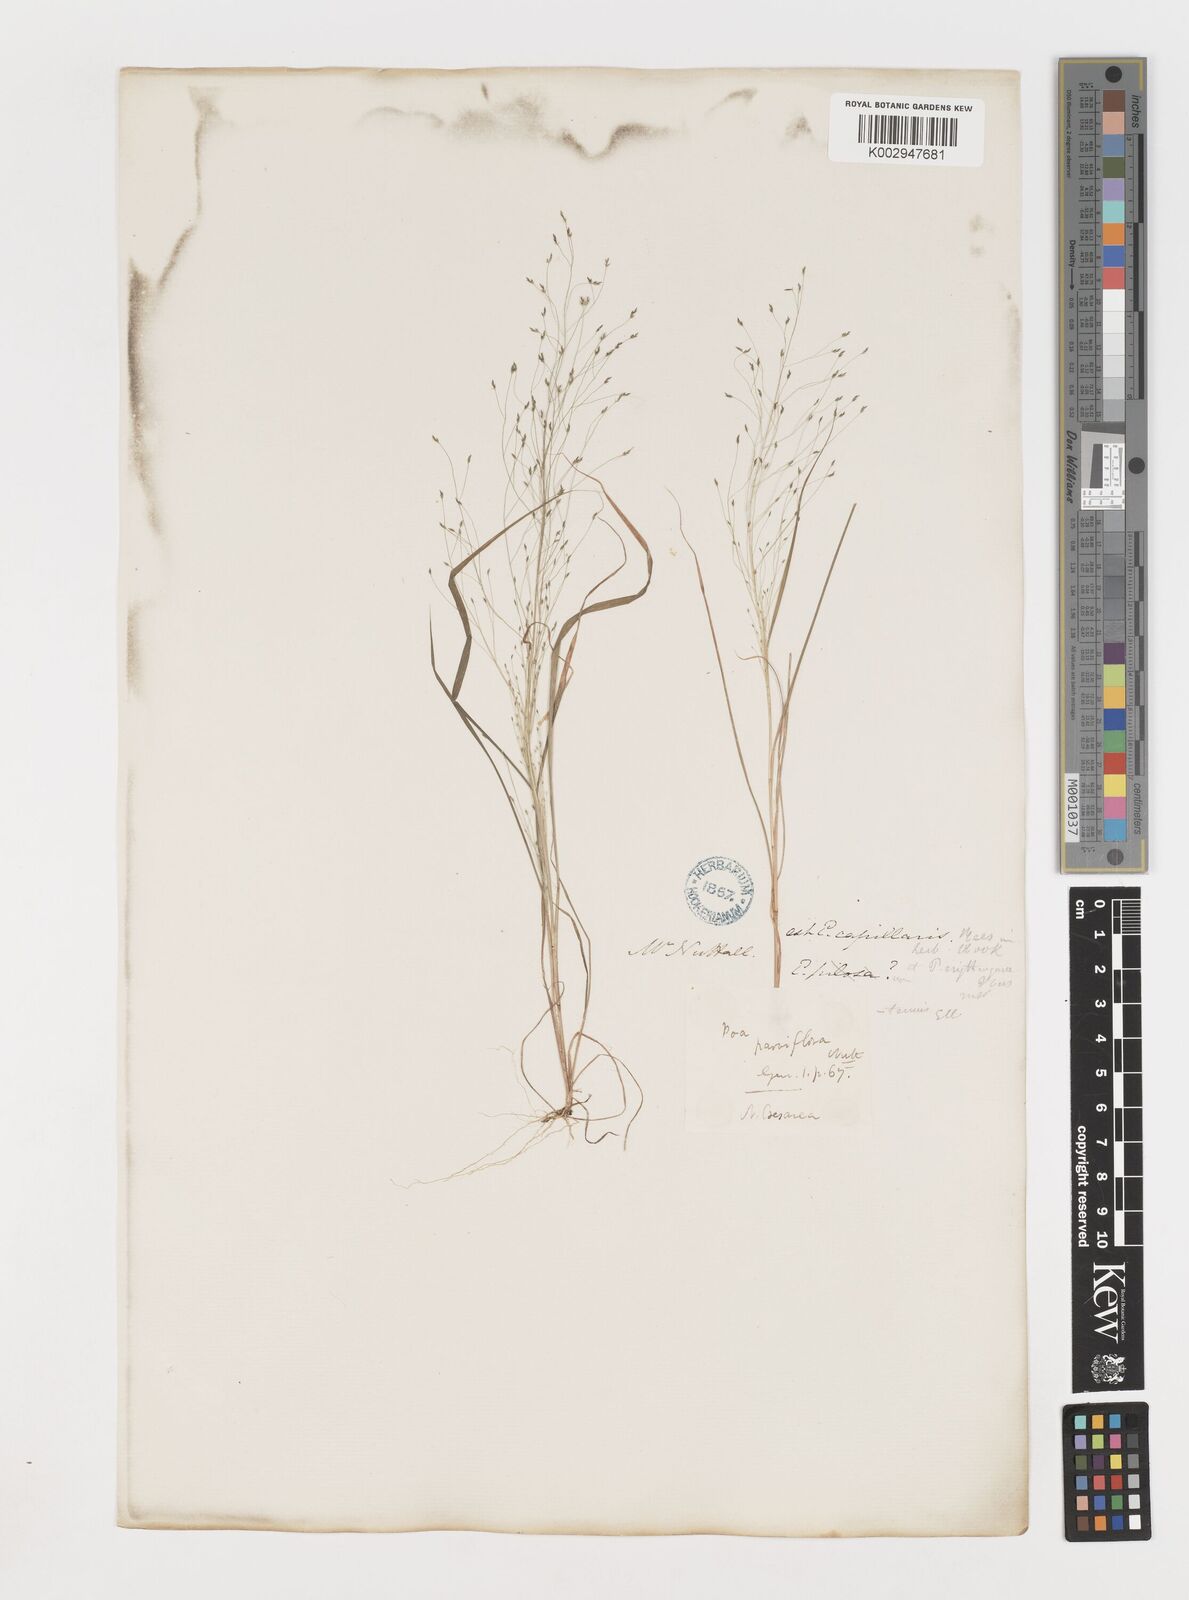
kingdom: Plantae
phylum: Tracheophyta
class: Liliopsida
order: Poales
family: Poaceae
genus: Eragrostis
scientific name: Eragrostis capillaris
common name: Hair-like lovegrass
